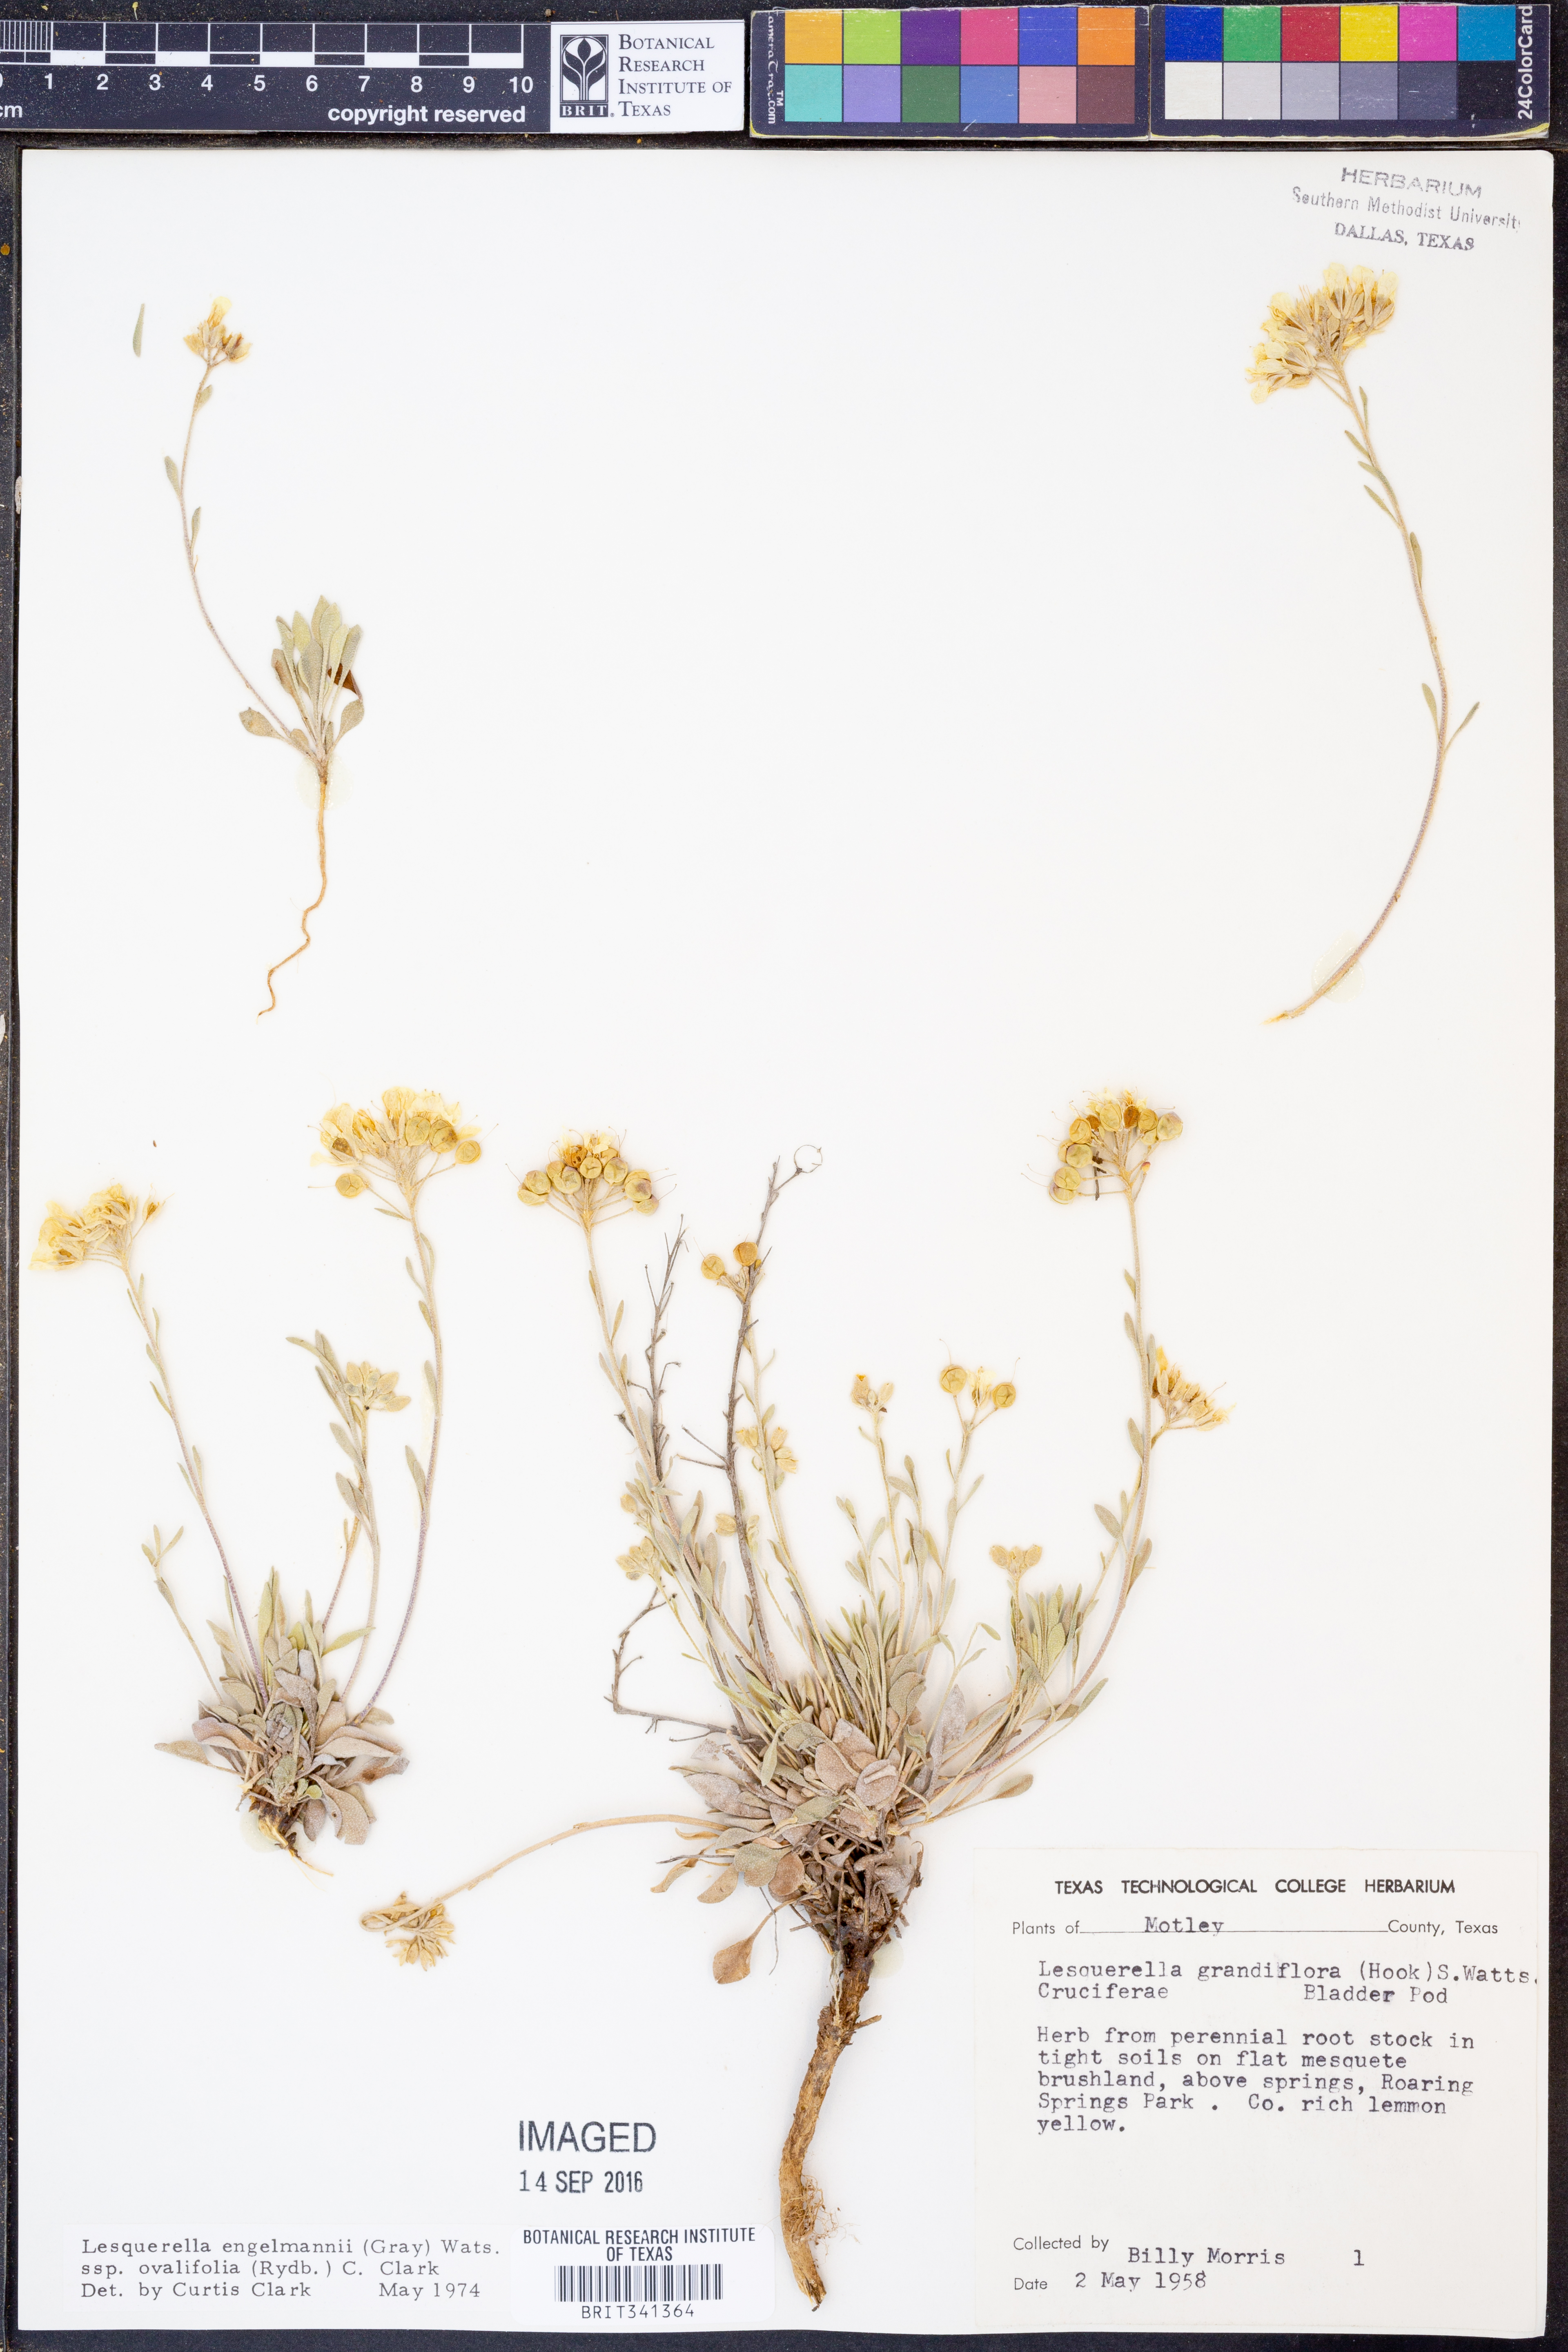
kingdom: Plantae
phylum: Tracheophyta
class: Magnoliopsida
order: Brassicales
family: Brassicaceae
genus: Physaria
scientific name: Physaria ovalifolia
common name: Round-leaf bladderpod
